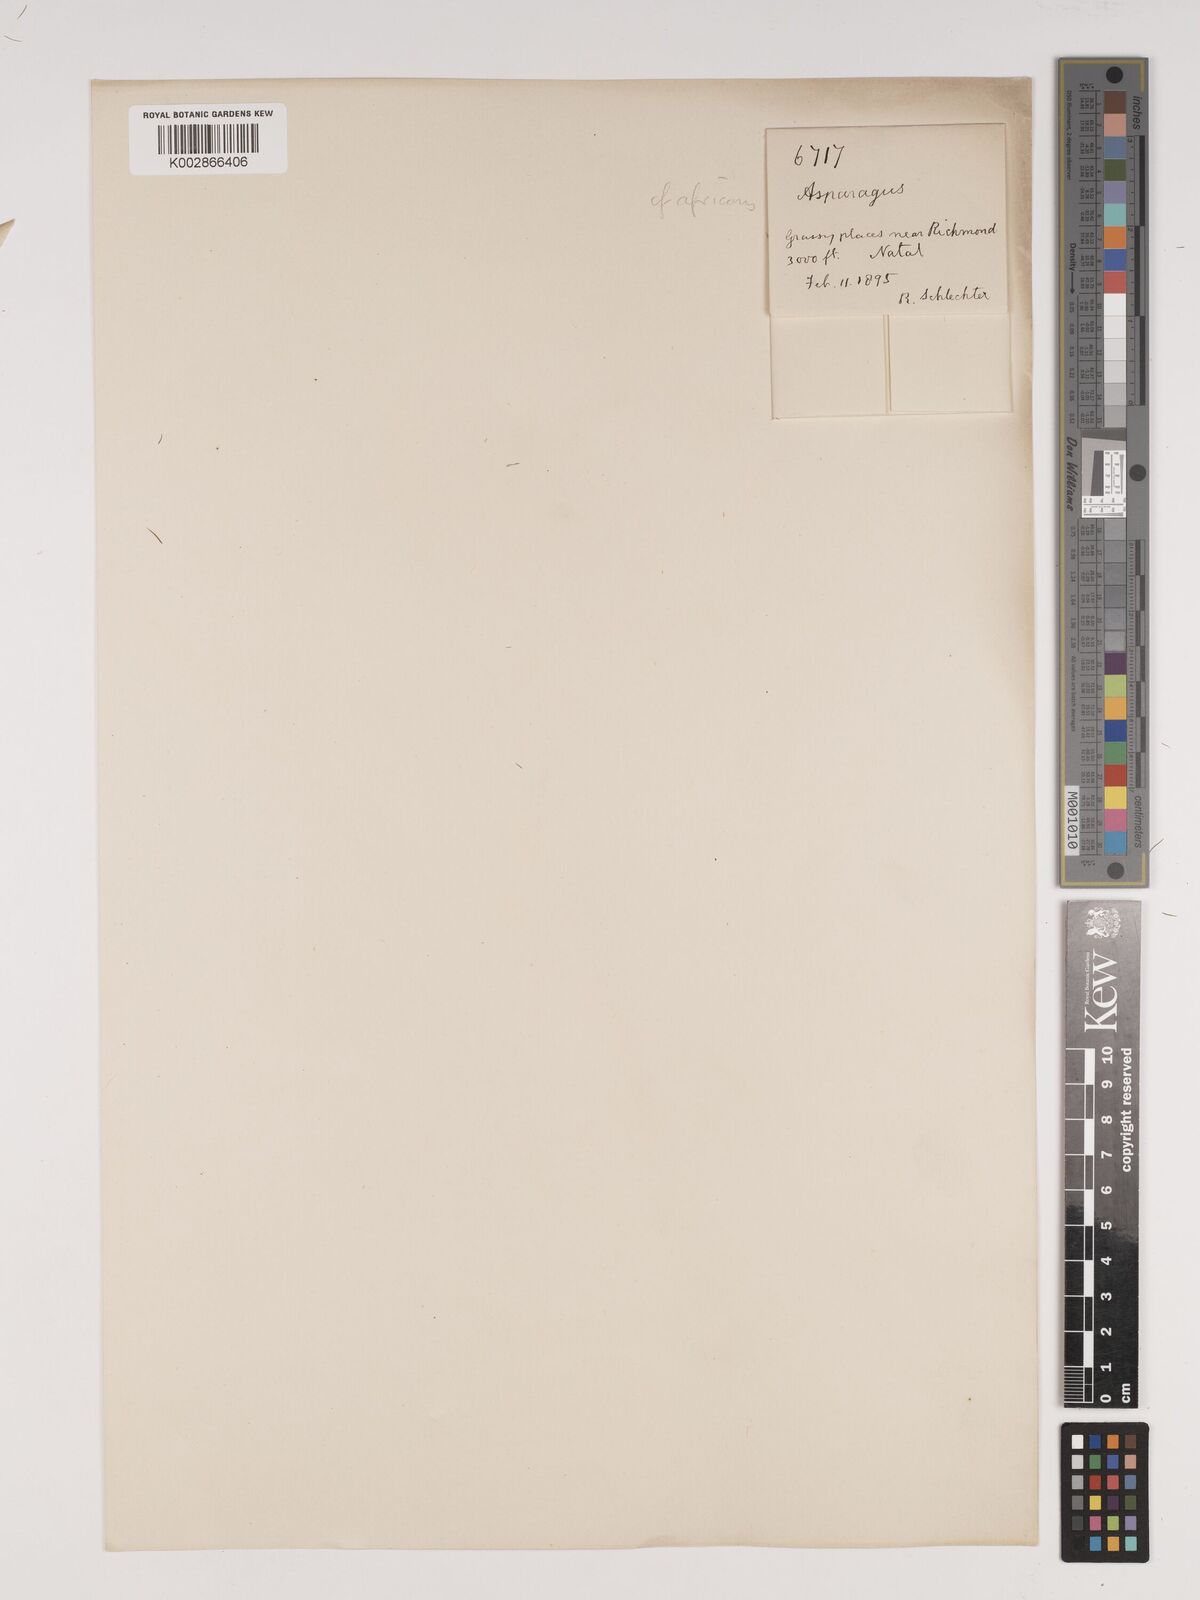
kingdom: Plantae
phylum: Tracheophyta
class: Liliopsida
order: Asparagales
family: Asparagaceae
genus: Asparagus
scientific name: Asparagus africanus
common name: Asparagus-fern
